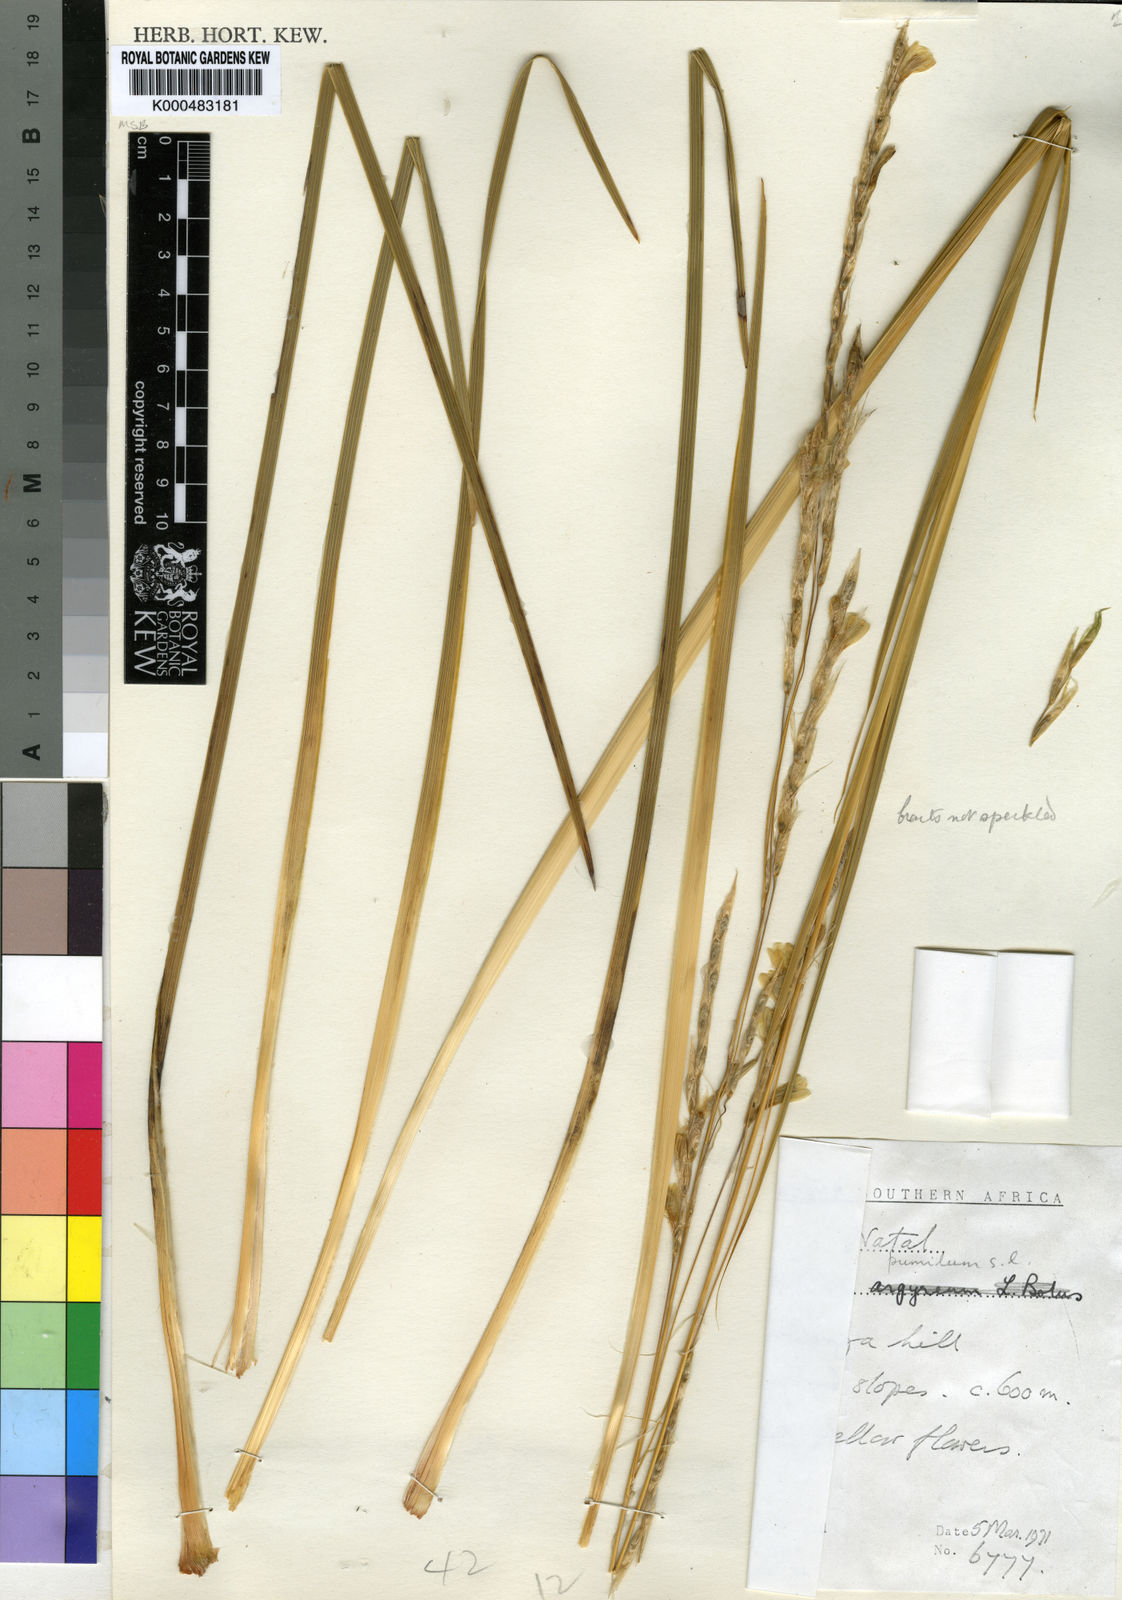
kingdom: Plantae
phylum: Tracheophyta
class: Liliopsida
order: Asparagales
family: Iridaceae
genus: Dierama
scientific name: Dierama pumilum
